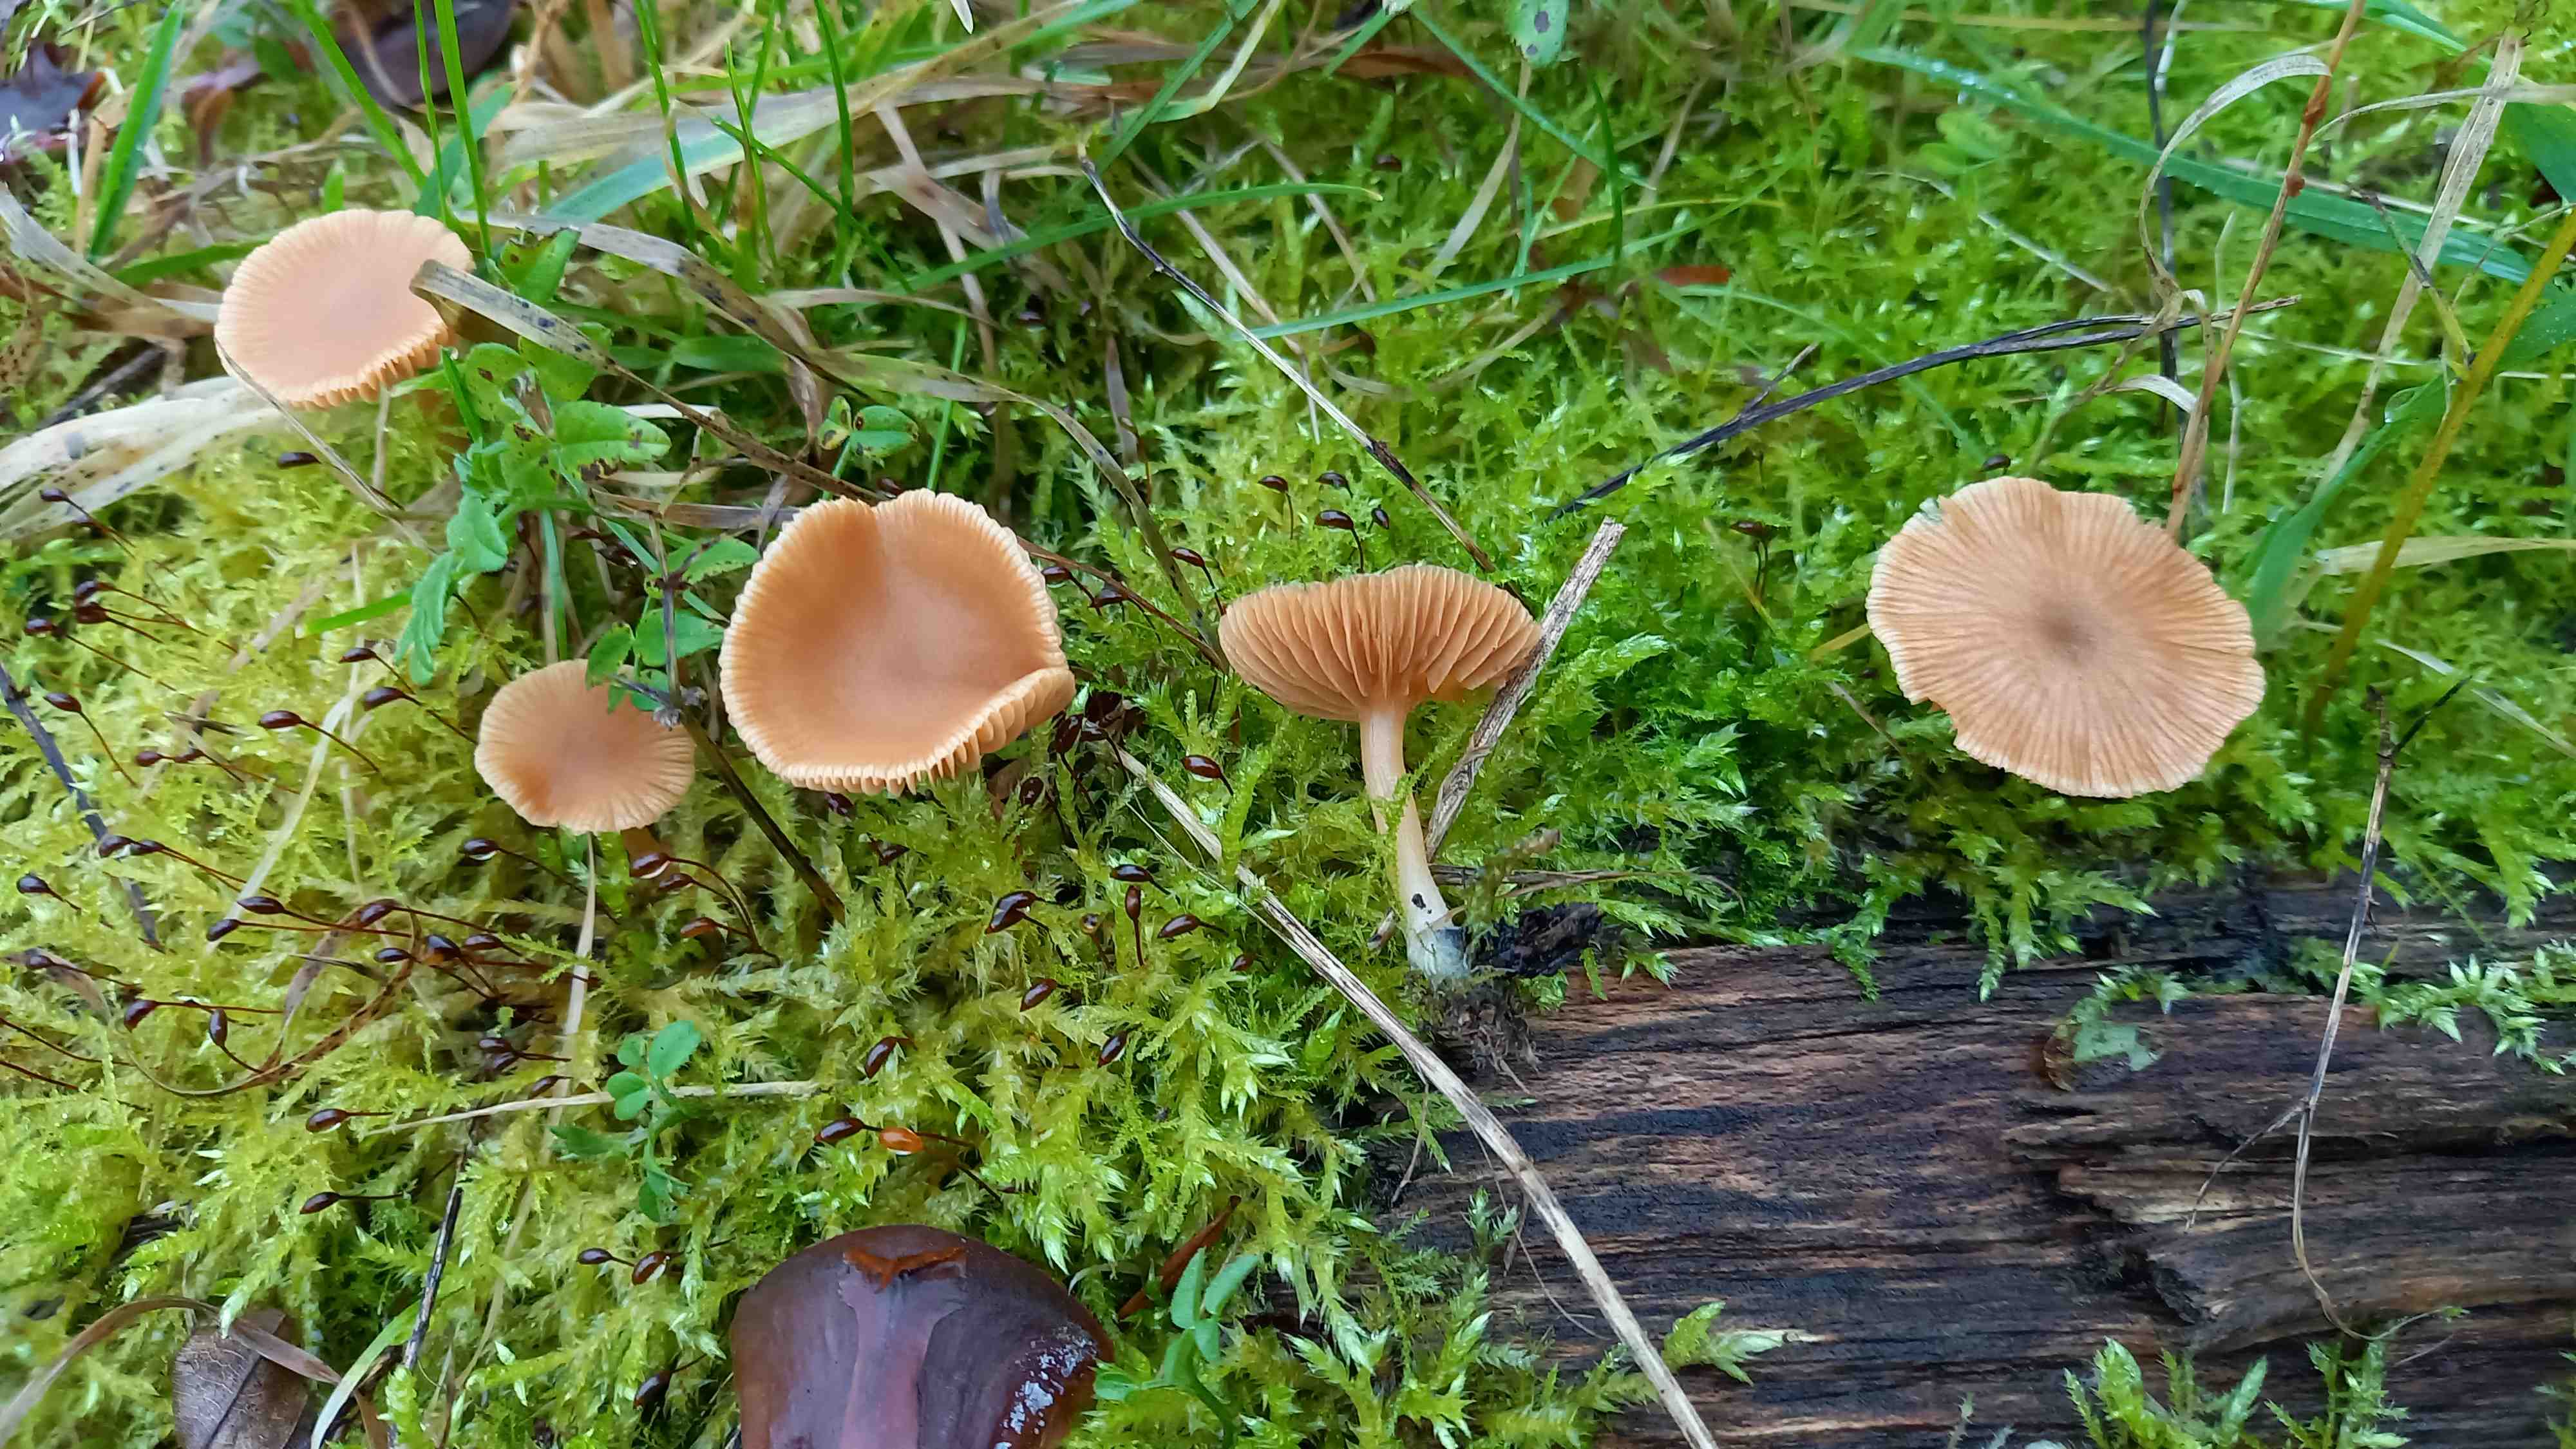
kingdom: Fungi
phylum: Basidiomycota
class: Agaricomycetes
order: Agaricales
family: Tubariaceae
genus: Tubaria
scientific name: Tubaria furfuracea
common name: kliddet fnughat
